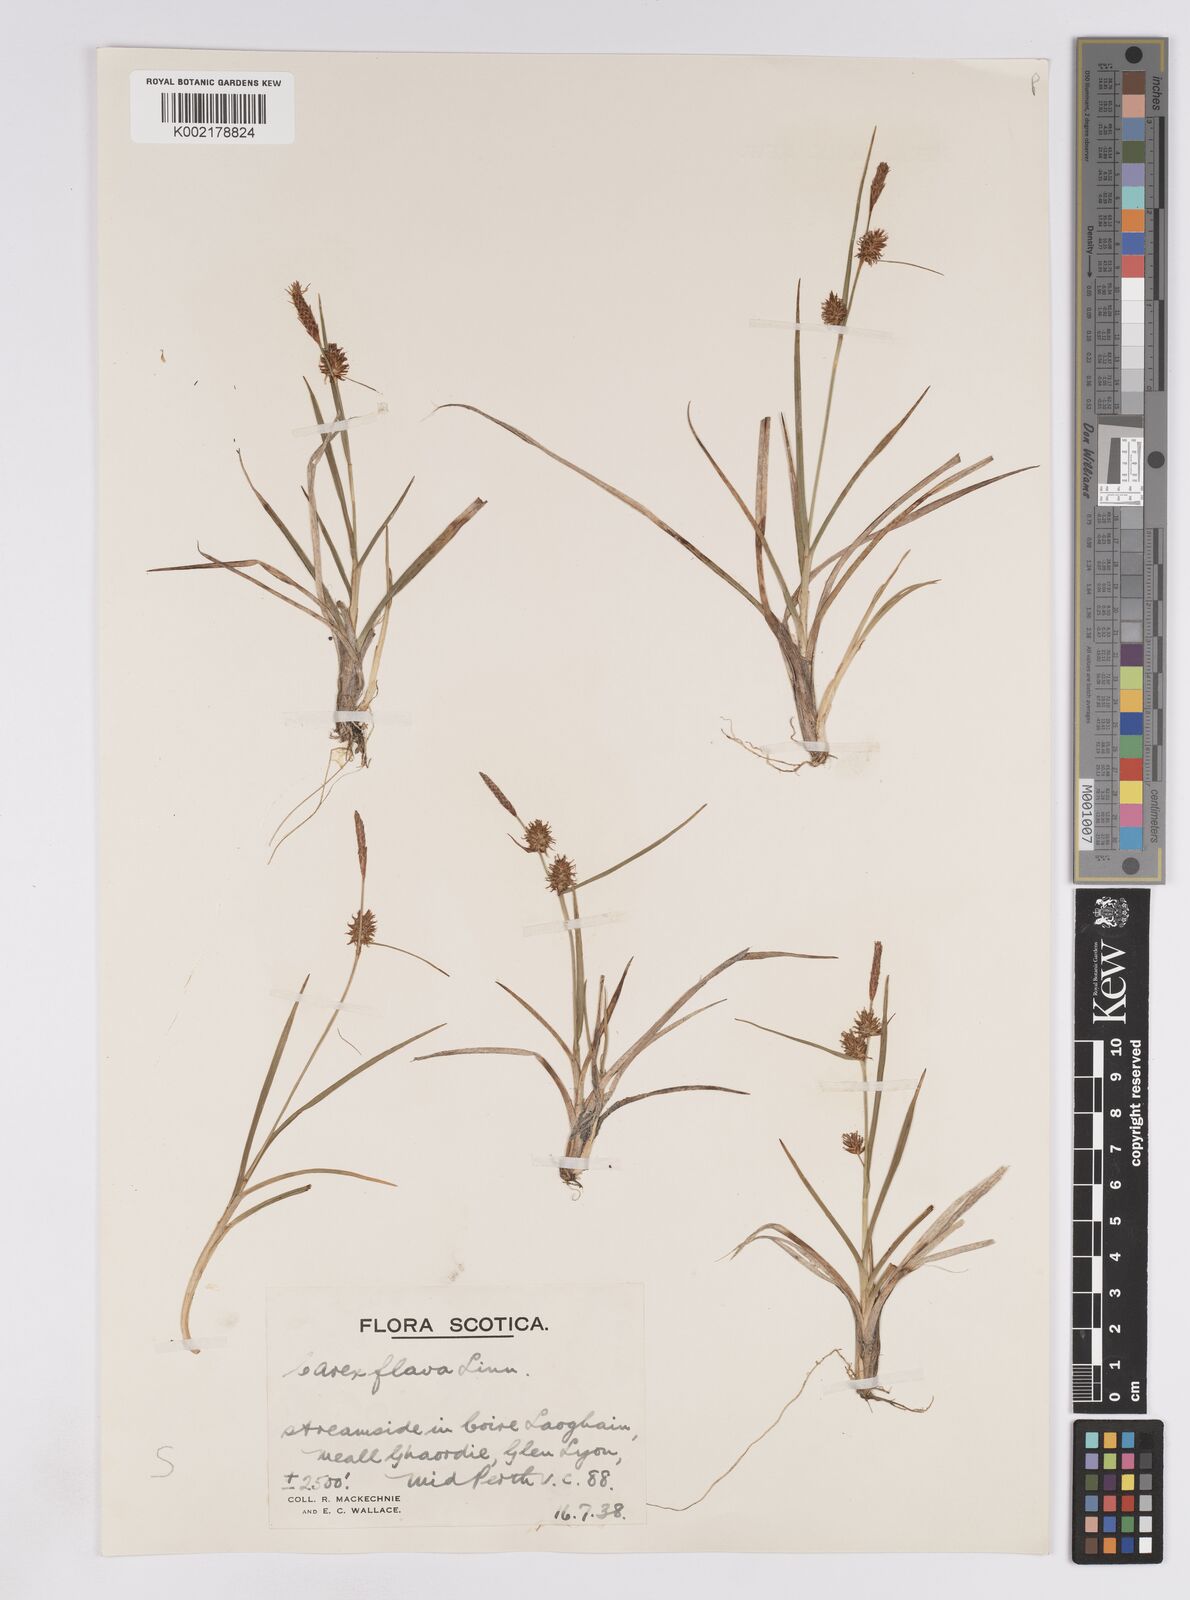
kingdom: Plantae
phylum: Tracheophyta
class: Liliopsida
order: Poales
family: Cyperaceae
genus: Carex
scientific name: Carex lepidocarpa
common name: Long-stalked yellow-sedge
